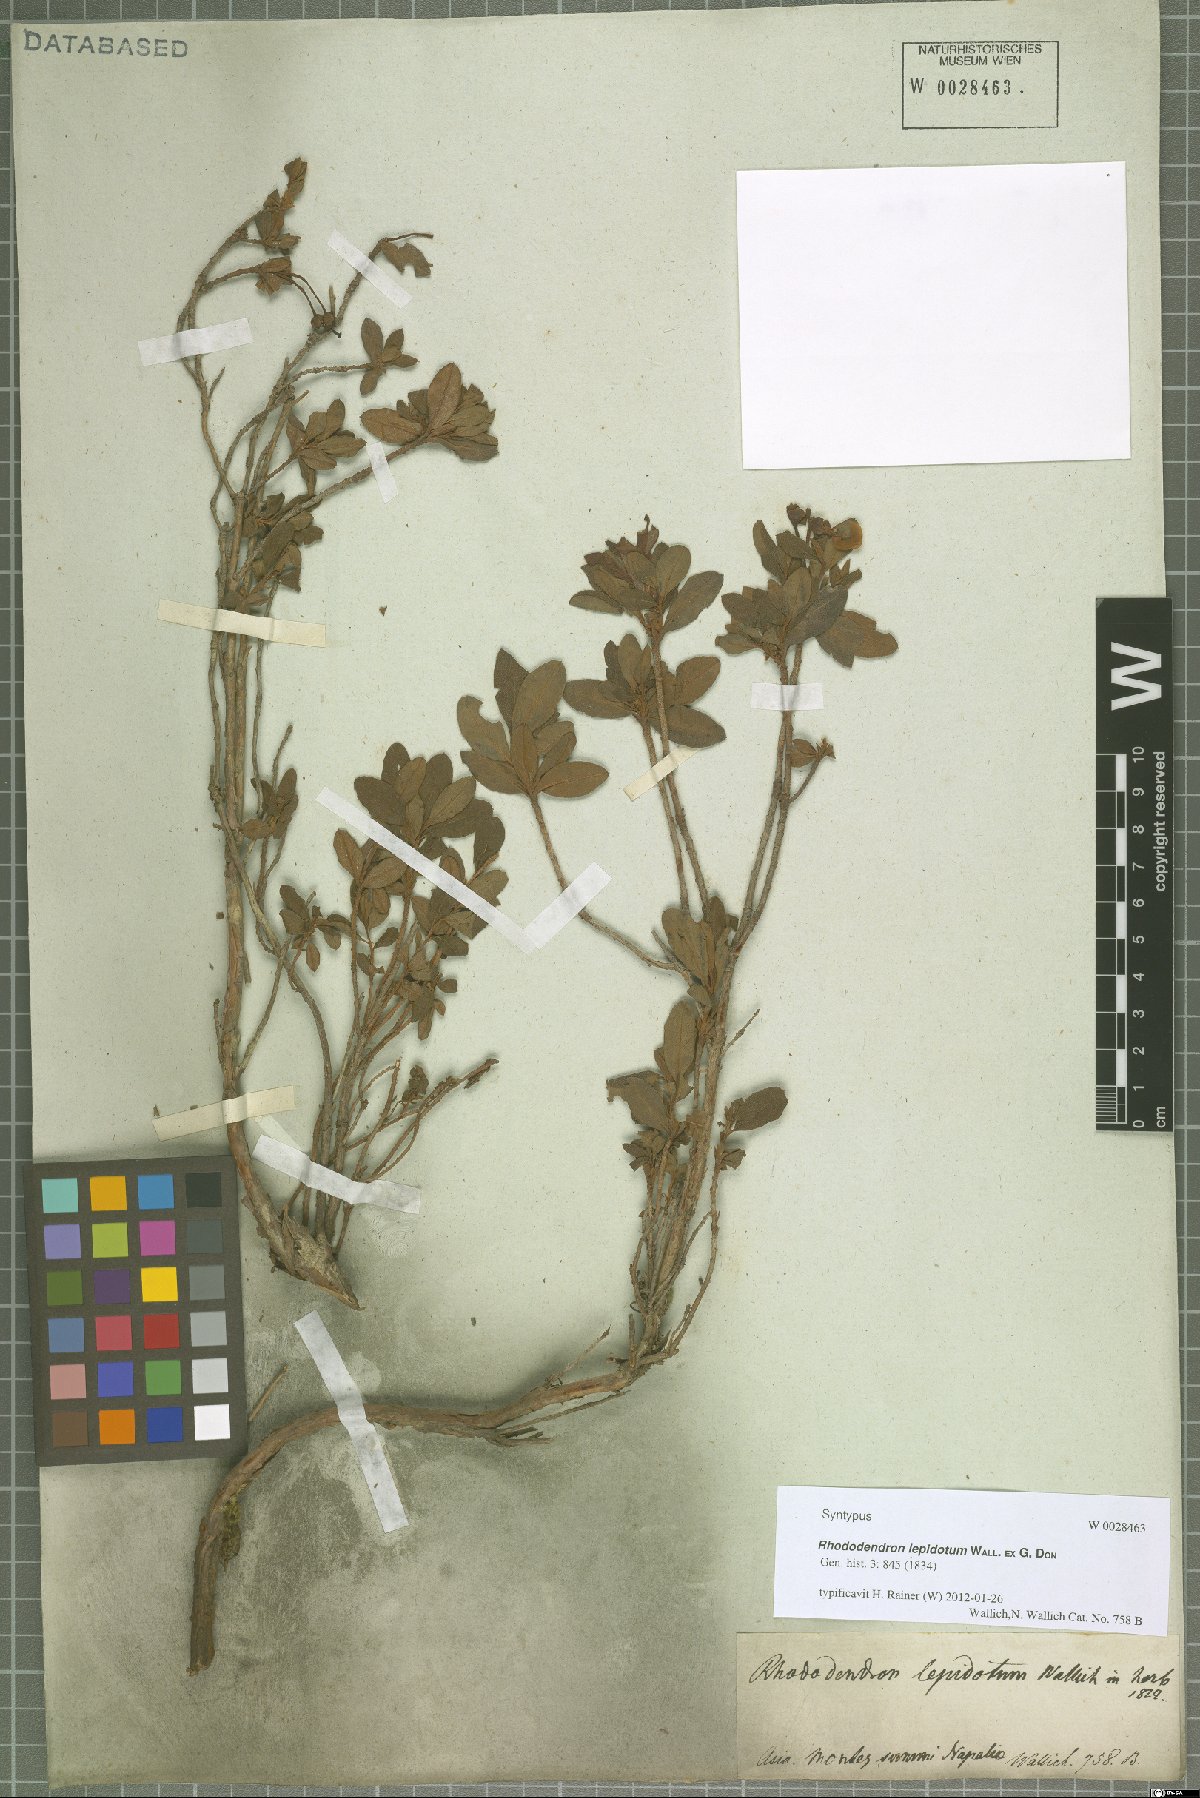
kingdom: Plantae
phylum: Tracheophyta
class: Magnoliopsida
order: Ericales
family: Ericaceae
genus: Rhododendron
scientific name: Rhododendron lepidotum
